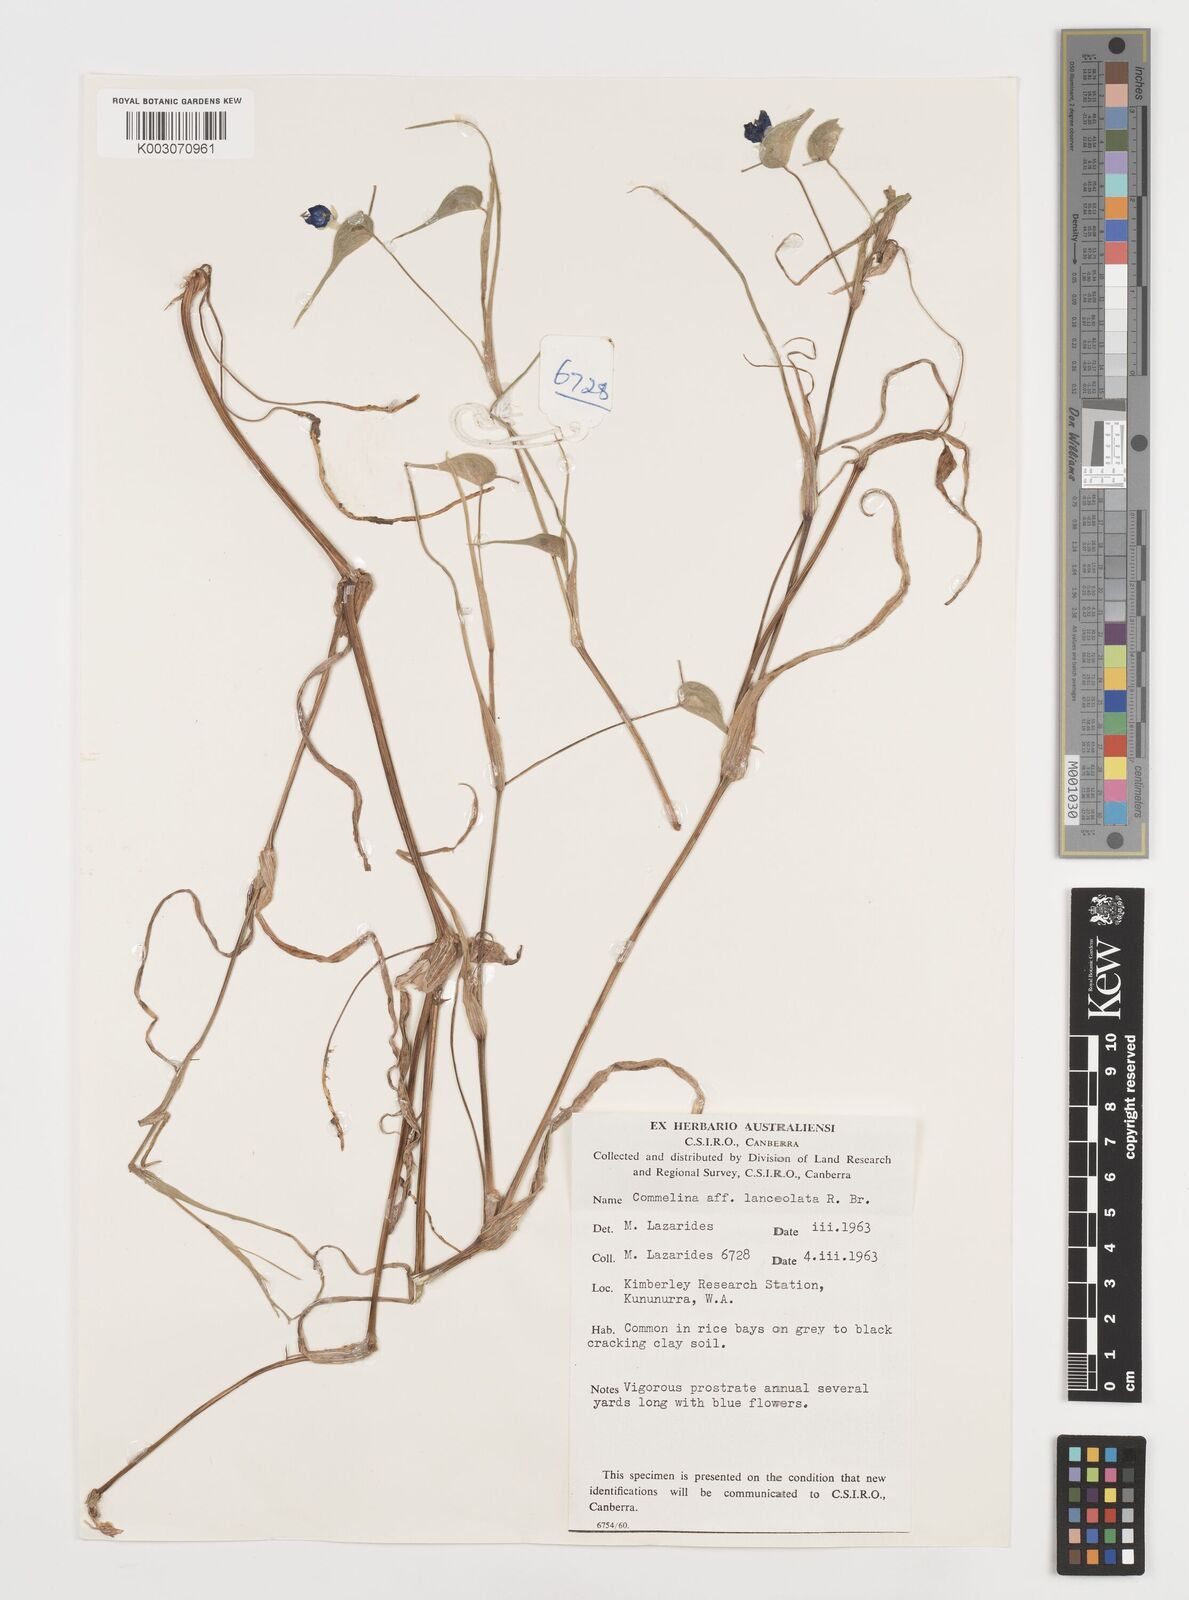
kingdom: Plantae
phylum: Tracheophyta
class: Liliopsida
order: Commelinales
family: Commelinaceae
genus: Commelina
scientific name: Commelina lanceolata
